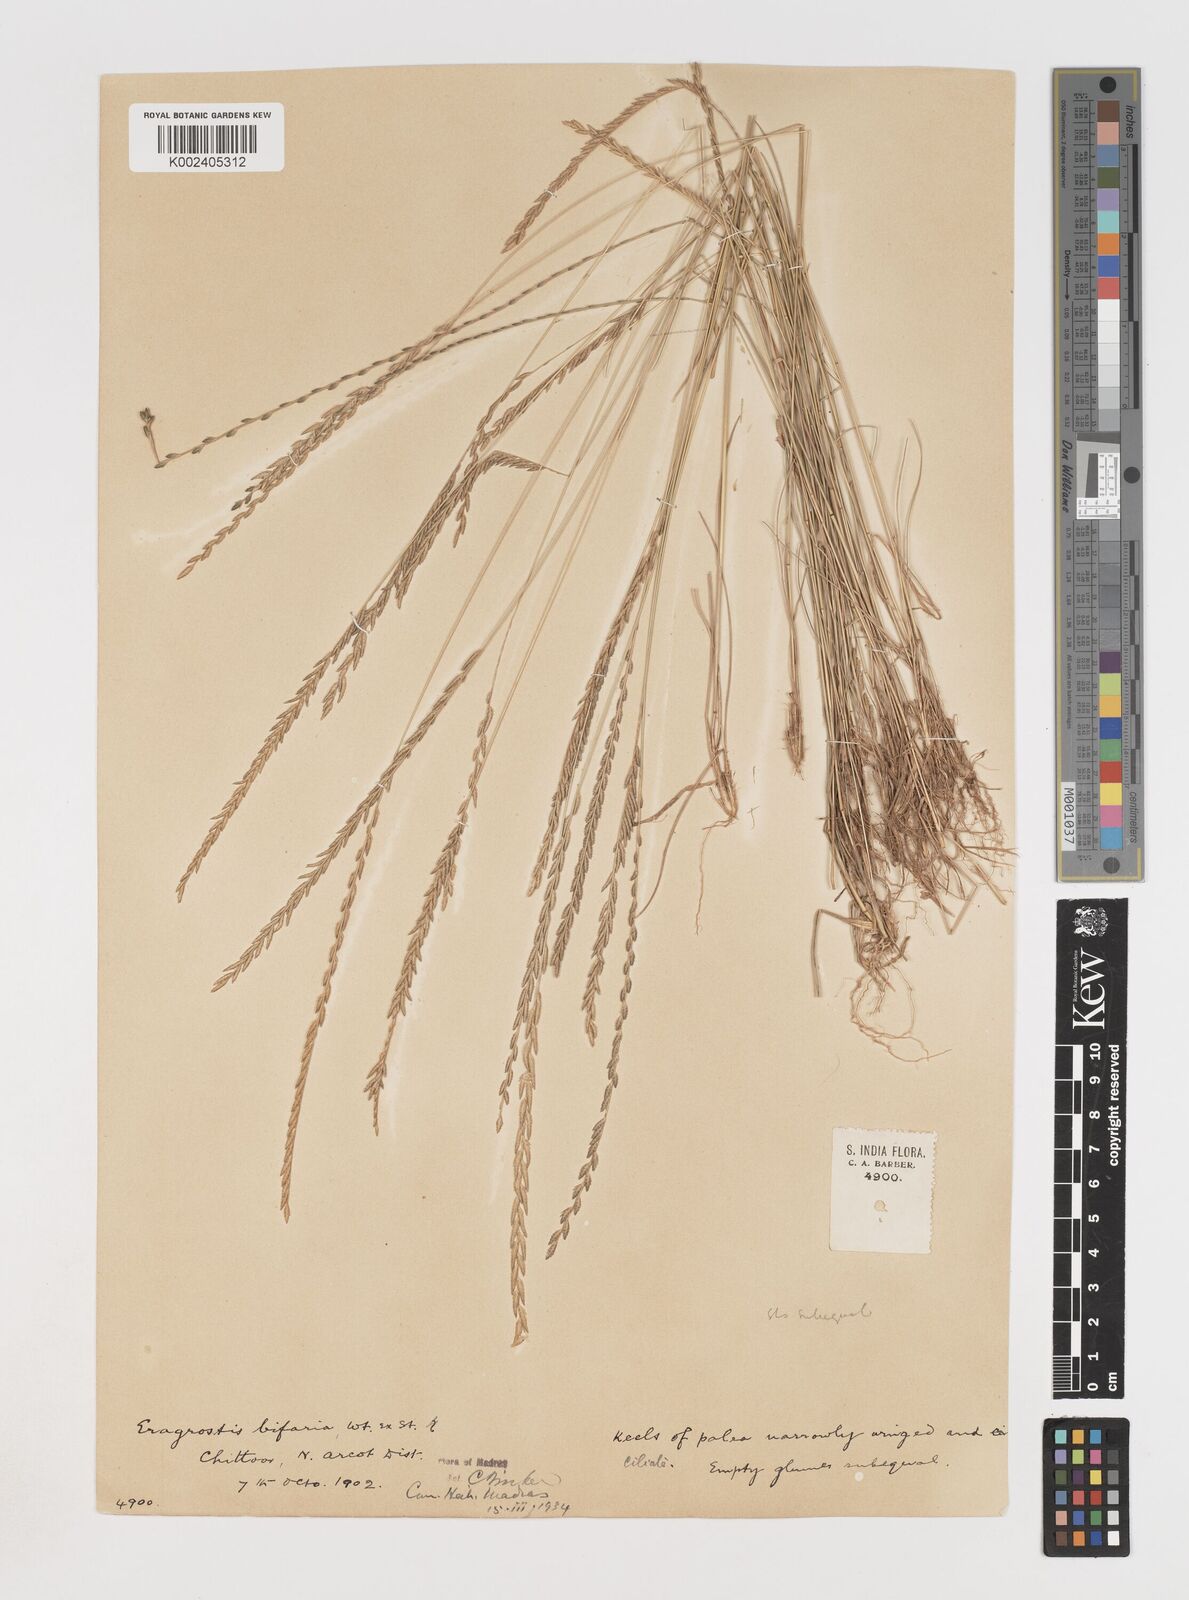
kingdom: Plantae
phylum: Tracheophyta
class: Liliopsida
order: Poales
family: Poaceae
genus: Eragrostiella
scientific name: Eragrostiella bifaria
